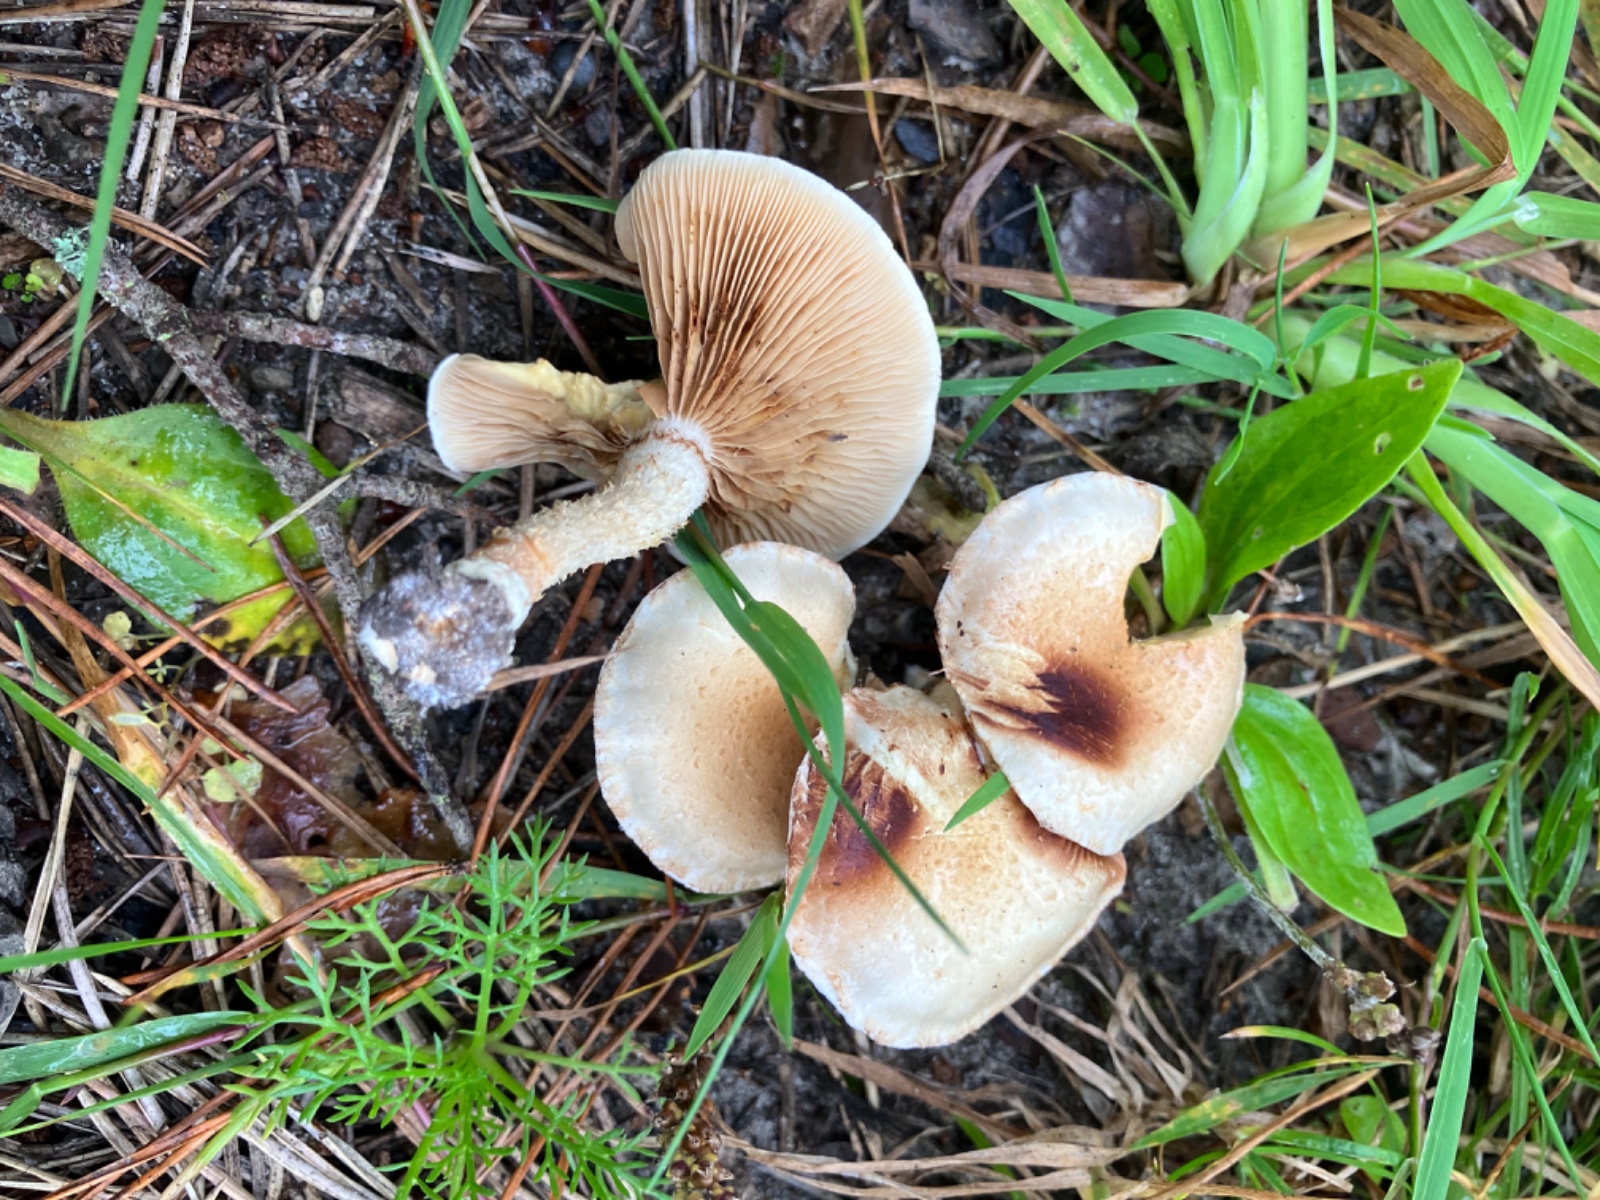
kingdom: Fungi
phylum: Basidiomycota
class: Agaricomycetes
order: Agaricales
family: Strophariaceae
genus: Pholiota
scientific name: Pholiota gummosa
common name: grøngul skælhat
